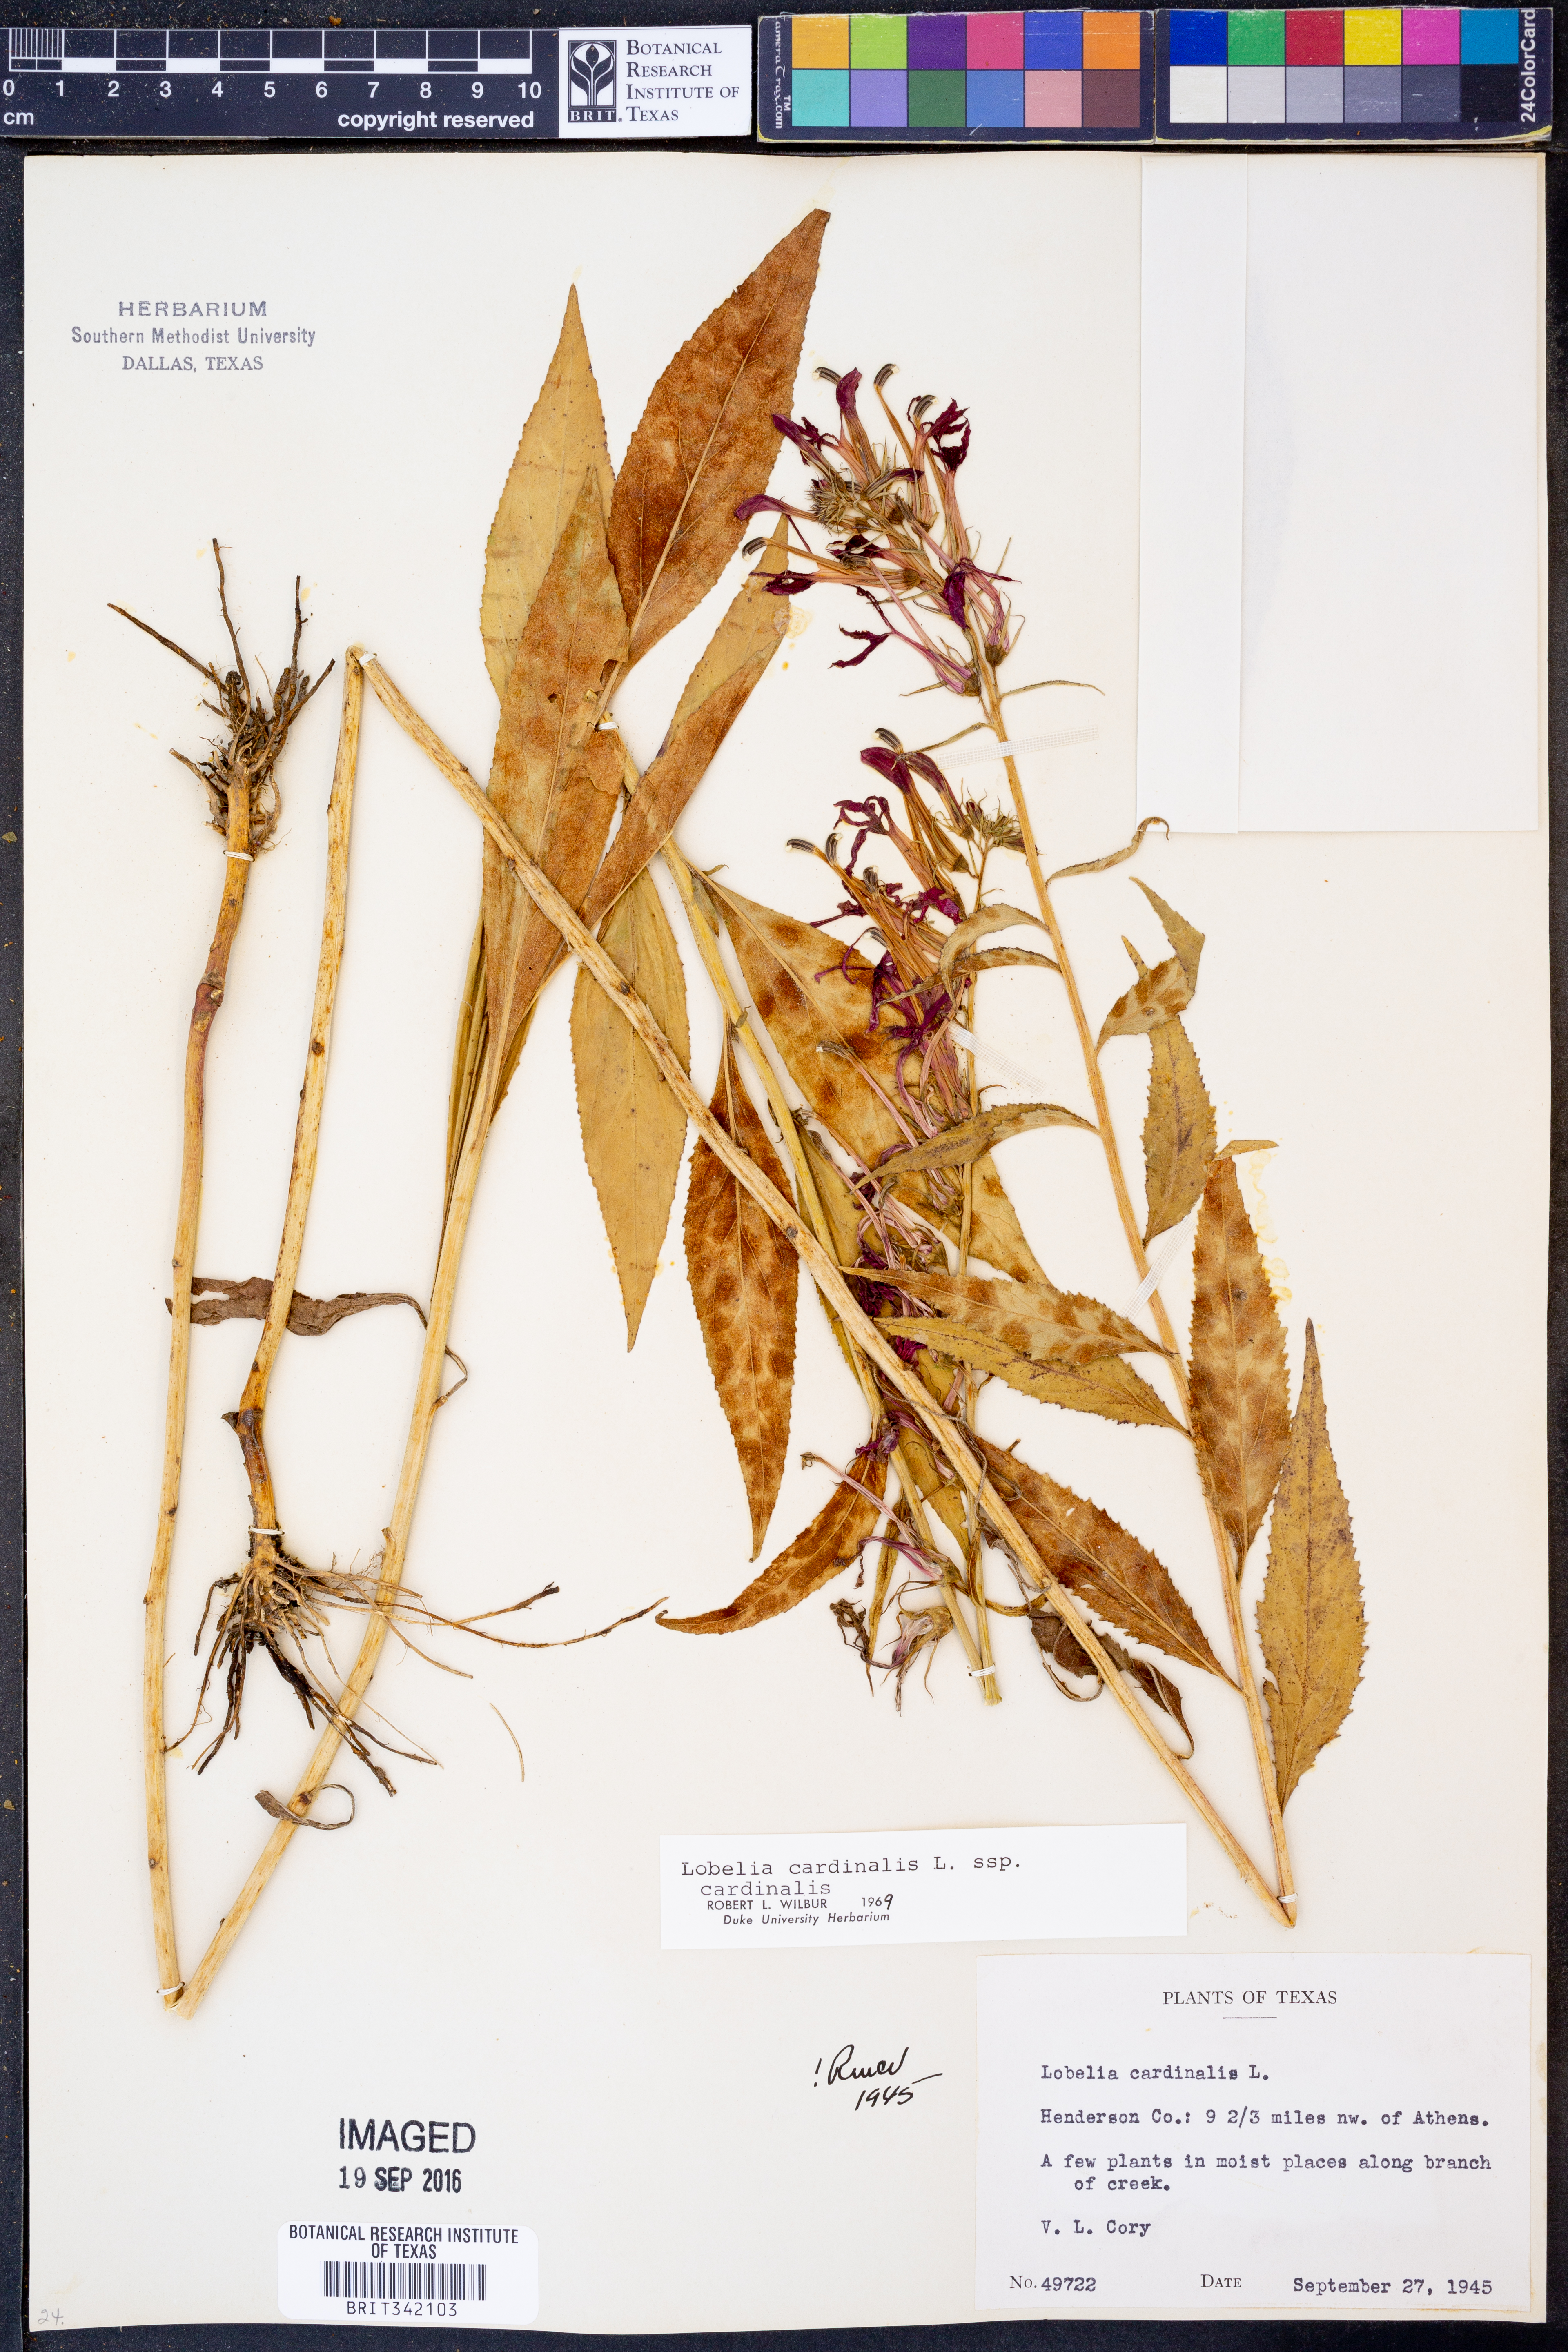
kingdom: Plantae
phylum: Tracheophyta
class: Magnoliopsida
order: Asterales
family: Campanulaceae
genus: Lobelia
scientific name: Lobelia cardinalis
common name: Cardinal flower
